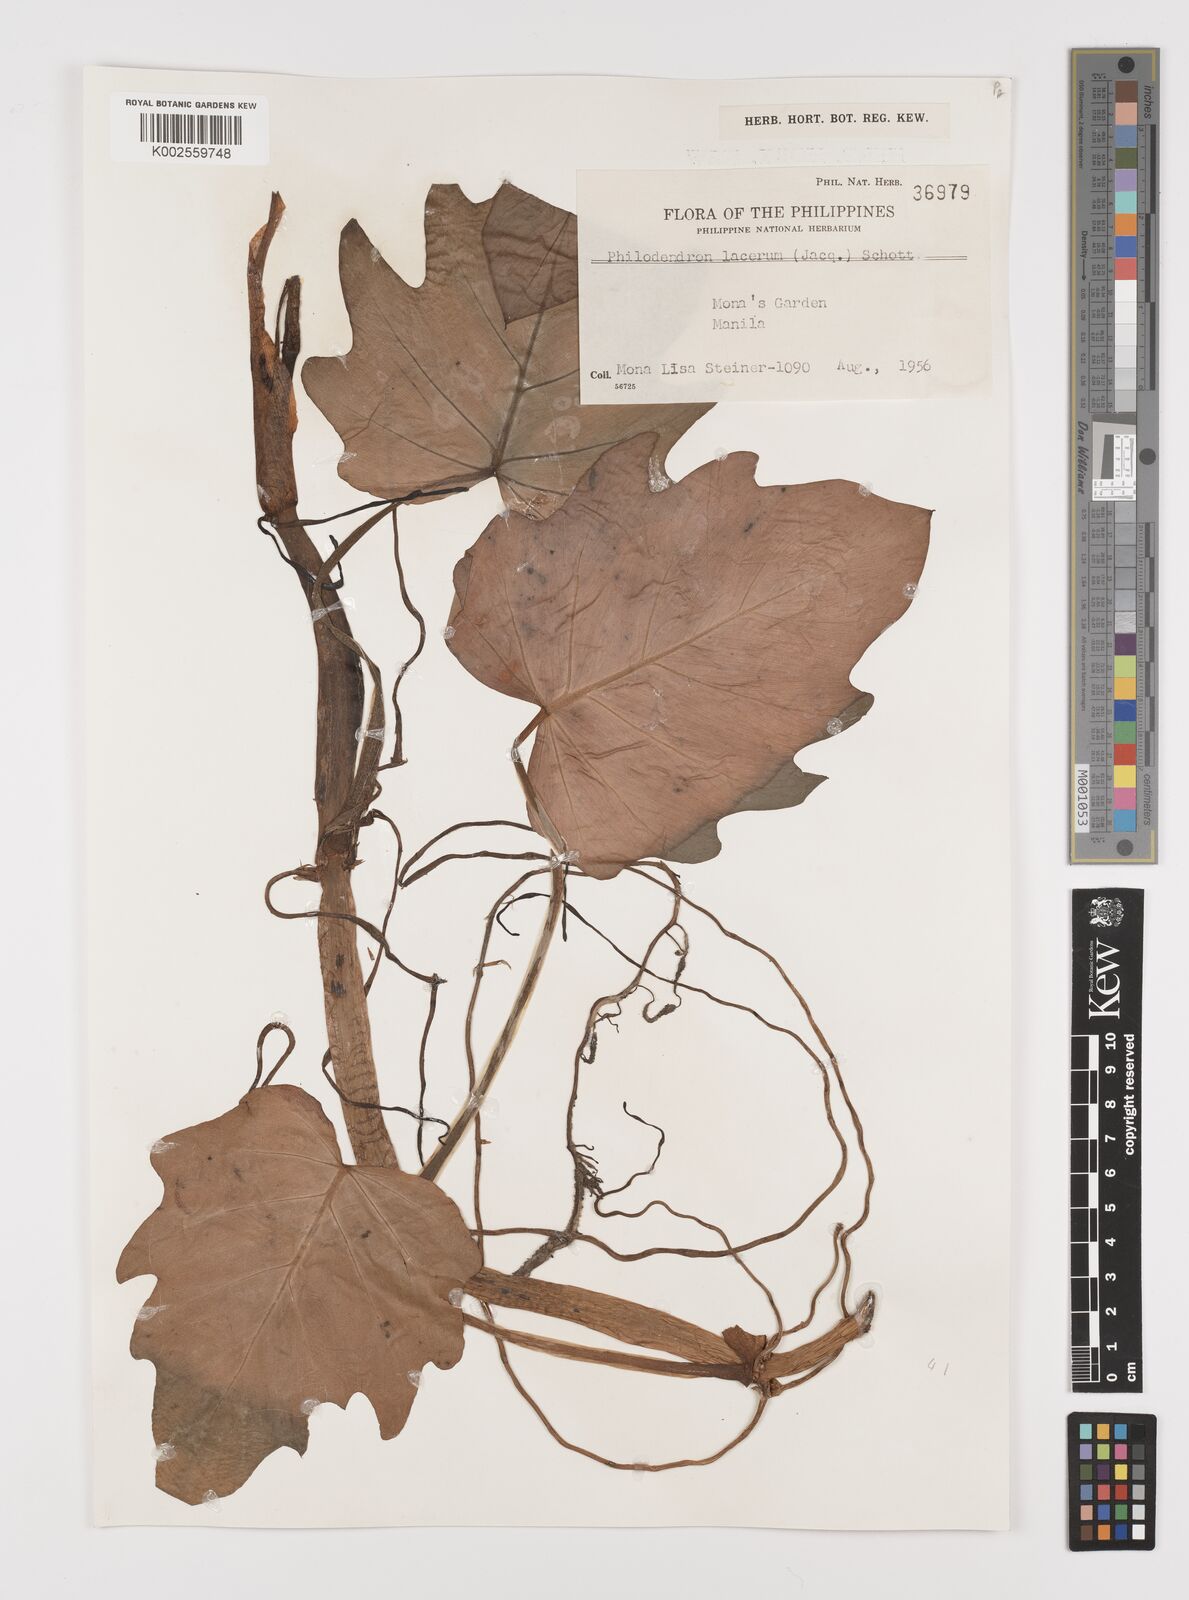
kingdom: Plantae
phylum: Tracheophyta
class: Liliopsida
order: Alismatales
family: Araceae
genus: Philodendron
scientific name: Philodendron lacerum
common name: Philodendron
